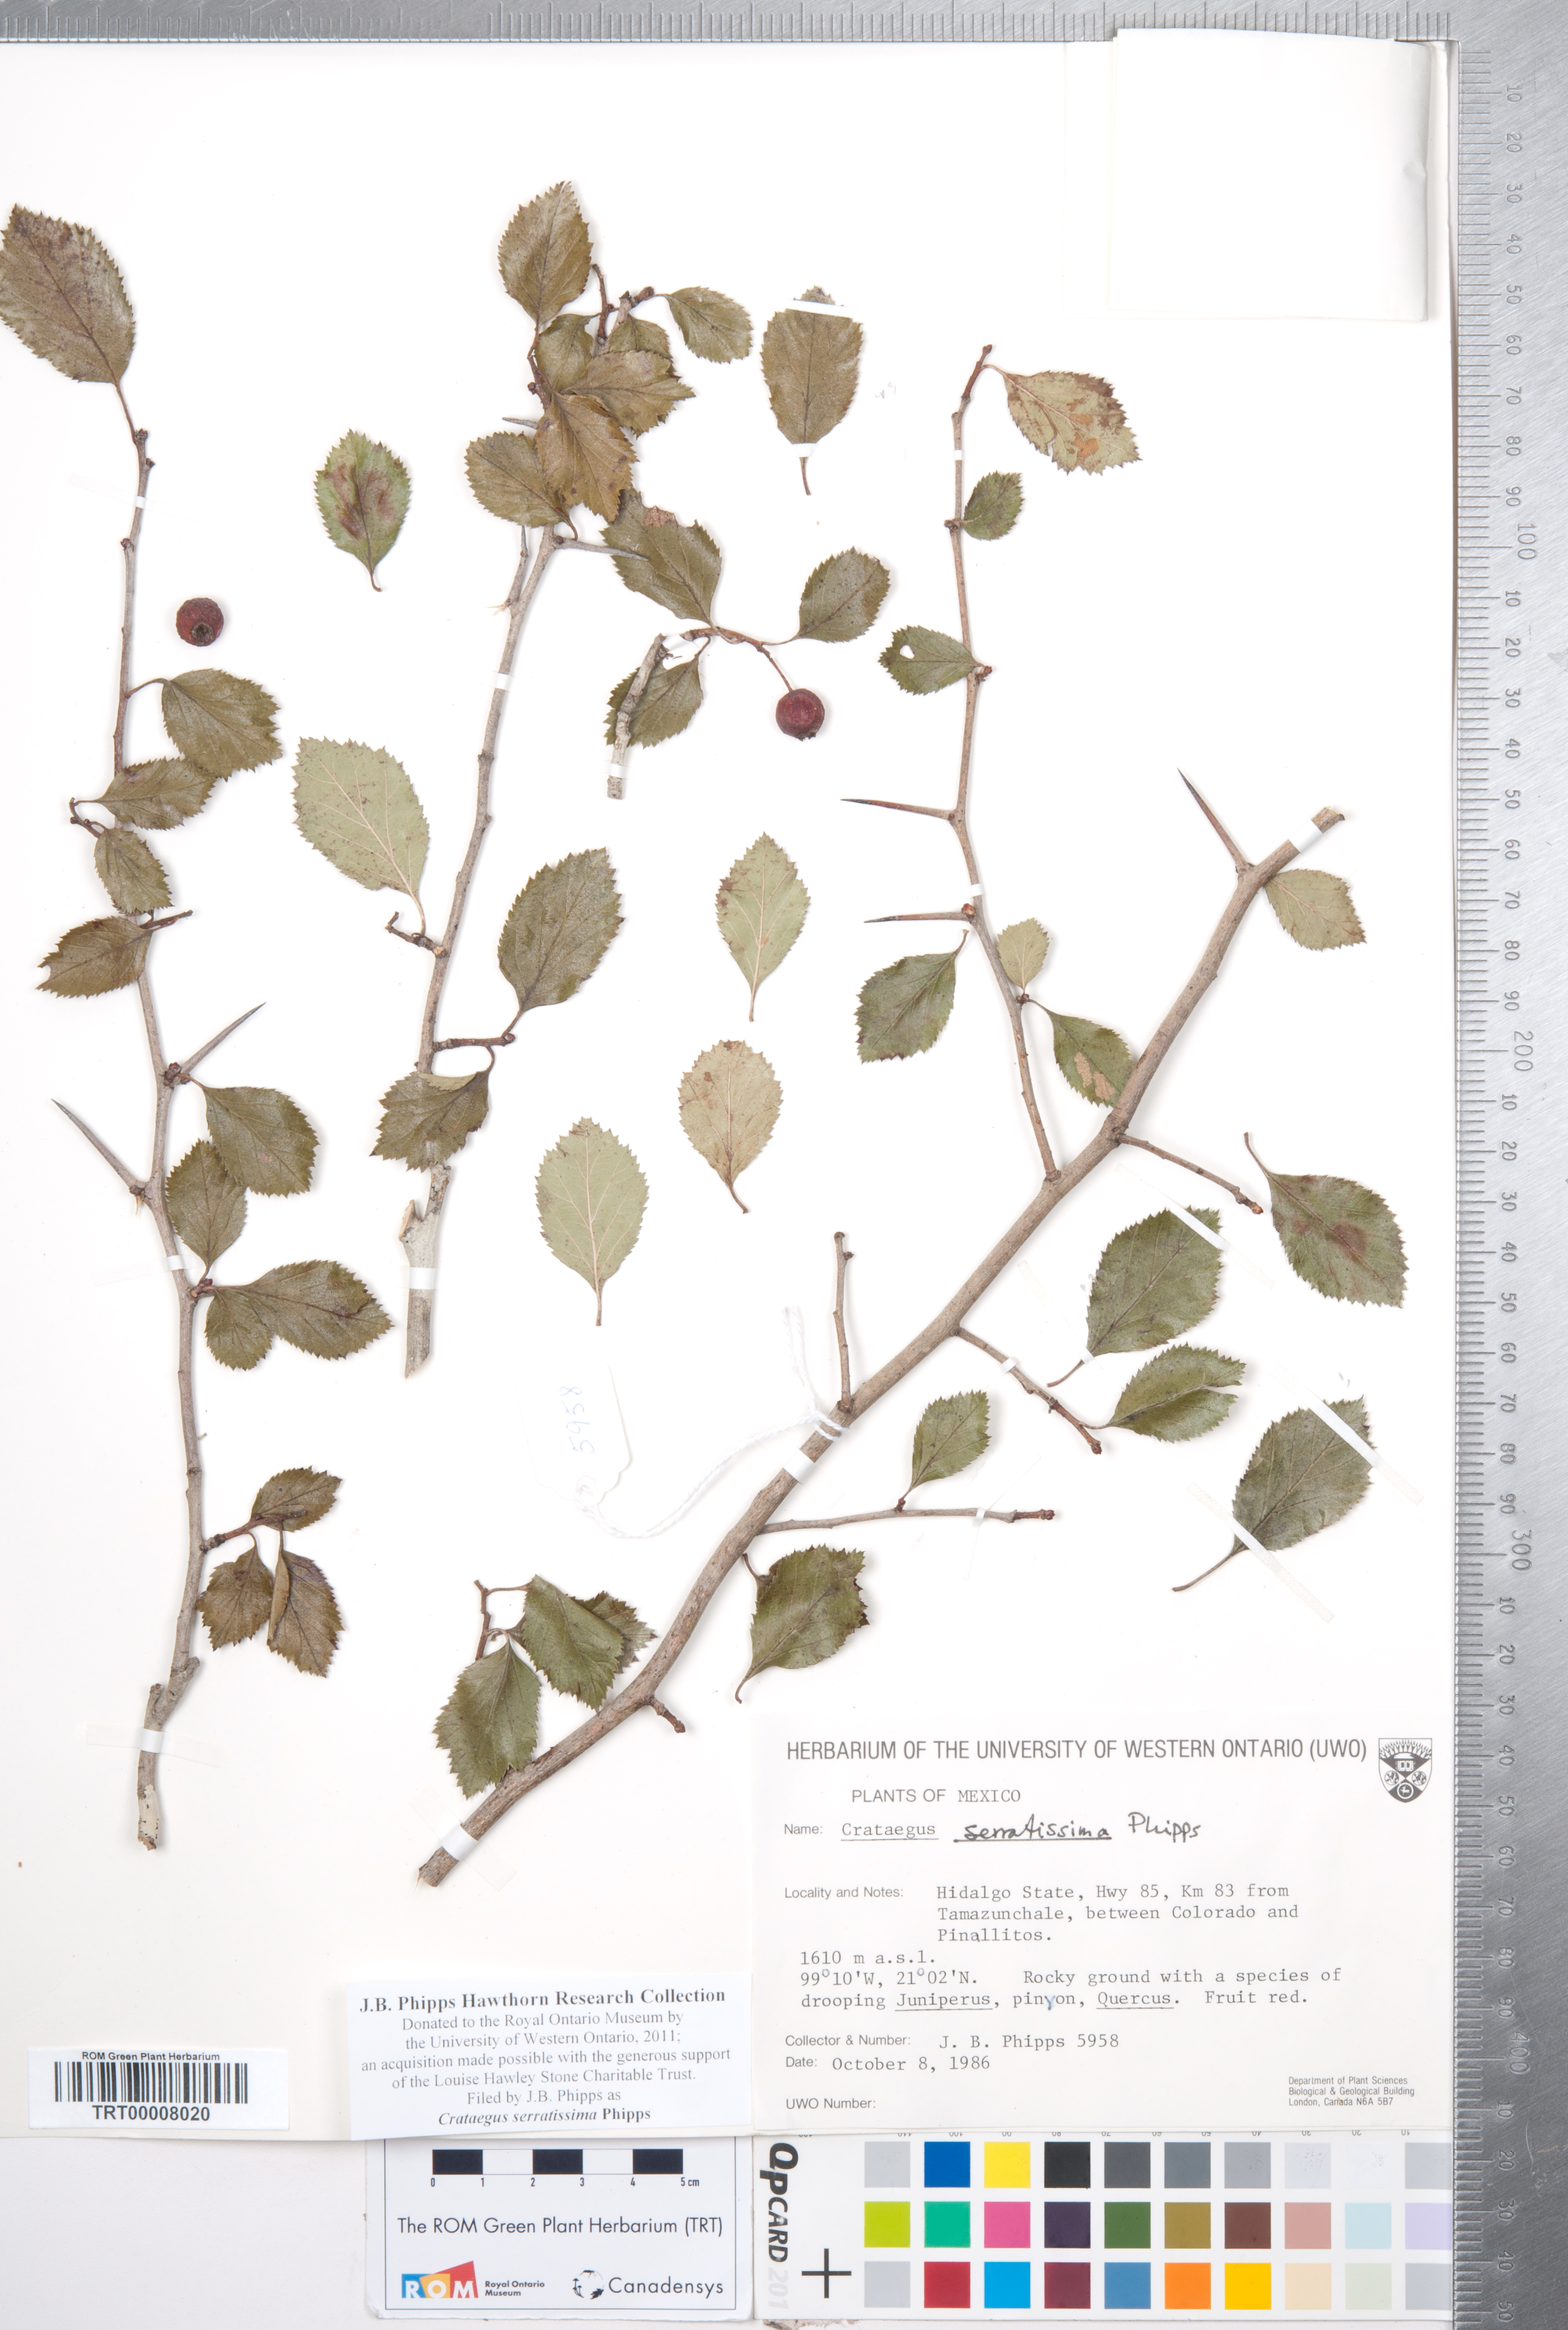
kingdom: Plantae
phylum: Tracheophyta
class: Magnoliopsida
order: Rosales
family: Rosaceae
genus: Crataegus
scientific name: Crataegus serratissima
